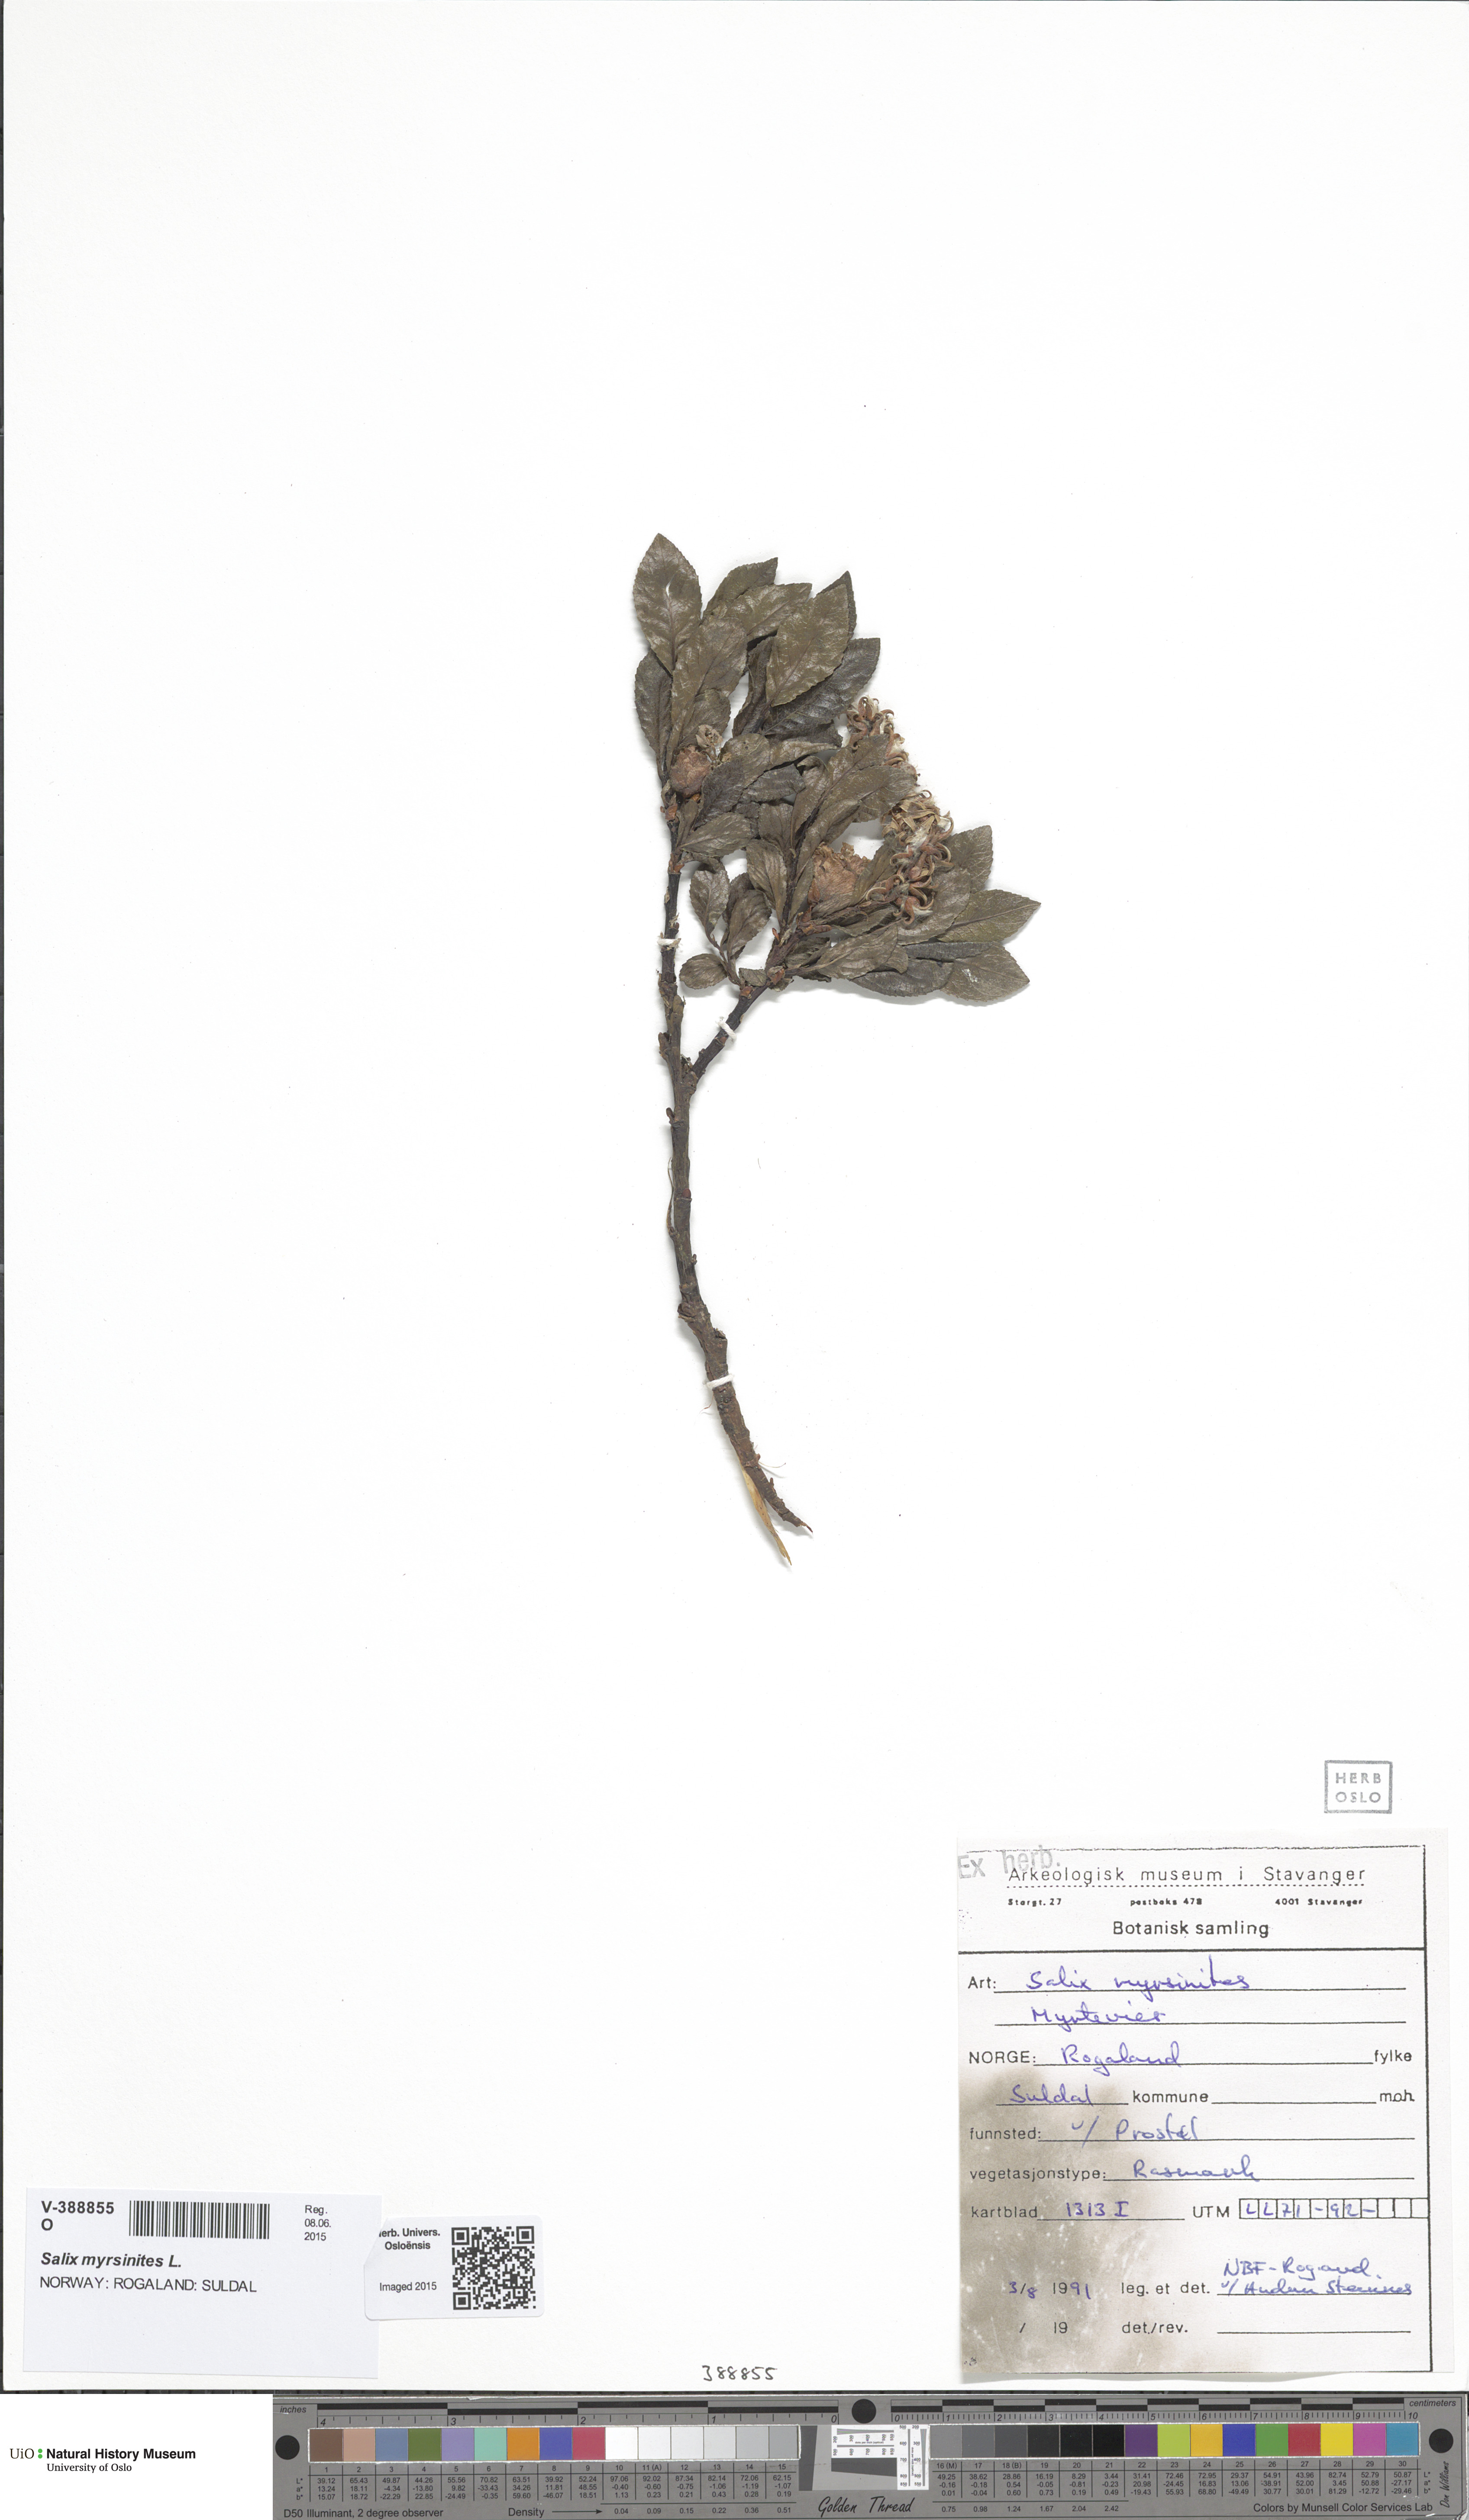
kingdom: Plantae
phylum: Tracheophyta
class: Magnoliopsida
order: Malpighiales
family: Salicaceae
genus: Salix
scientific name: Salix myrsinites
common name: Myrtle willow
